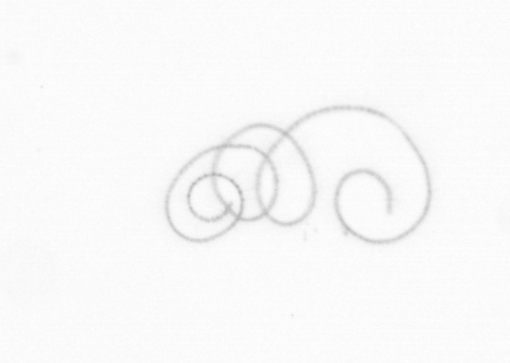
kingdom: Chromista
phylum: Ochrophyta
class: Bacillariophyceae
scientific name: Bacillariophyceae
